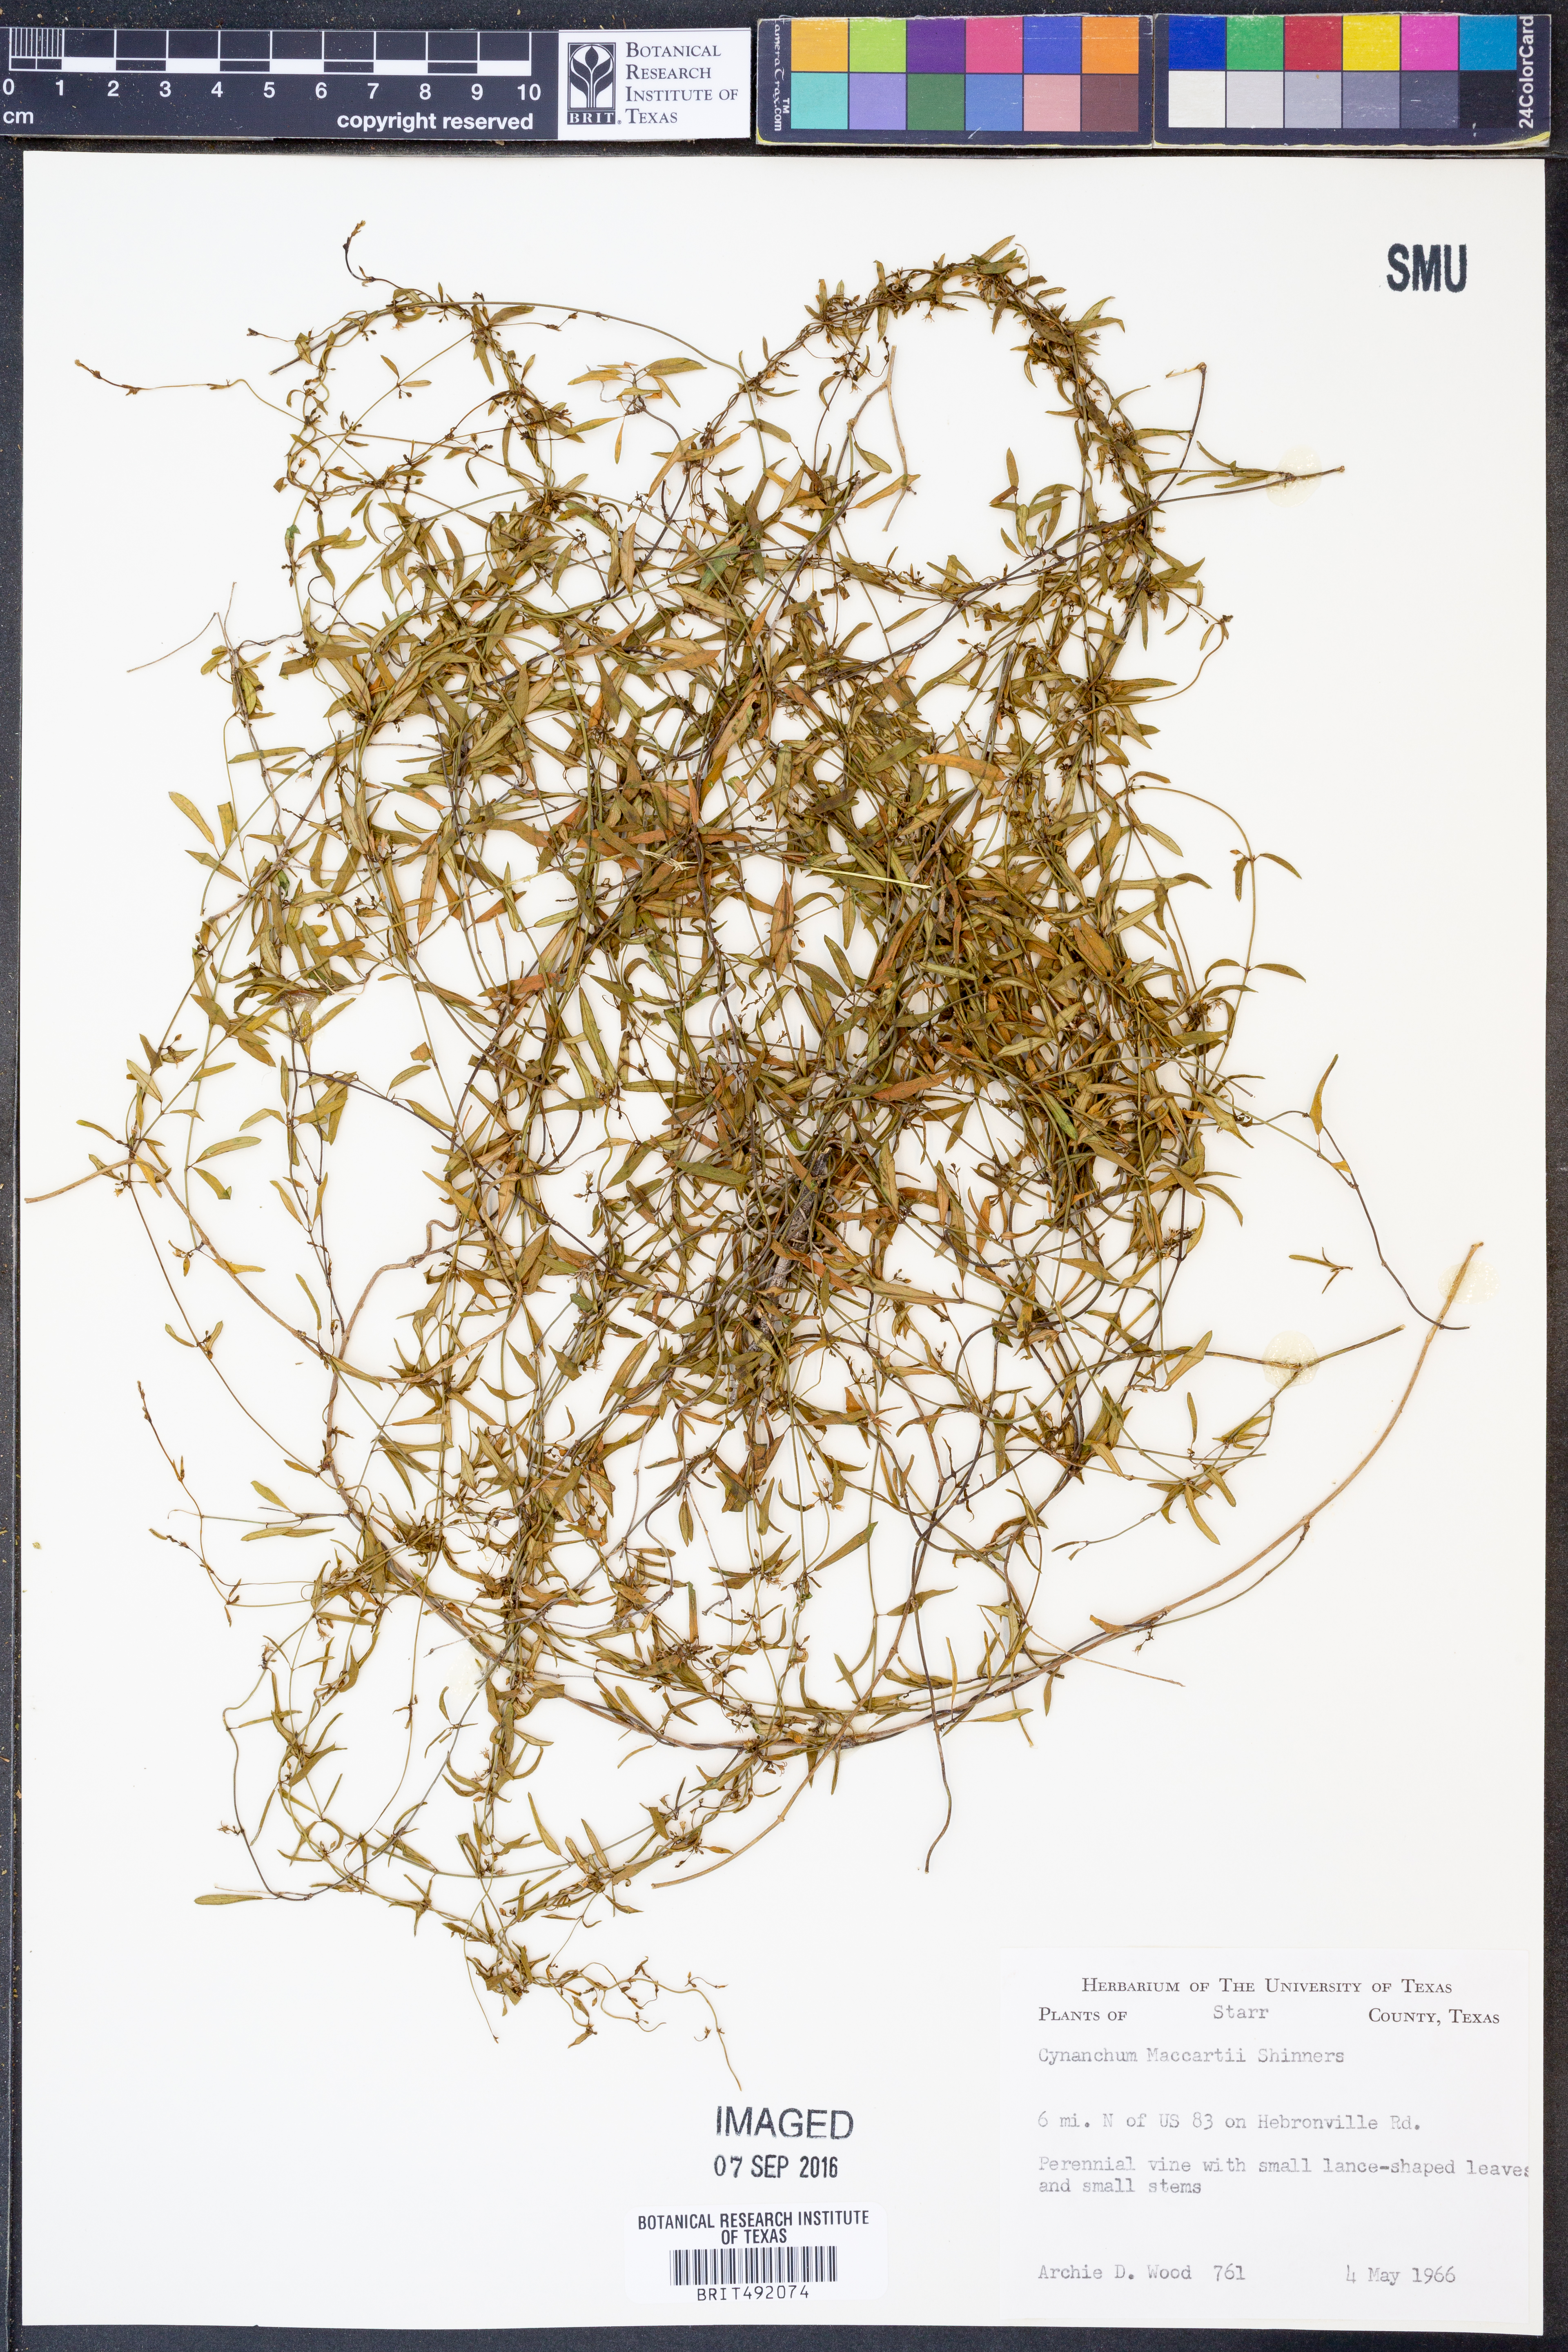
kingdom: Plantae
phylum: Tracheophyta
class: Magnoliopsida
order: Gentianales
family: Apocynaceae
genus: Metastelma
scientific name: Metastelma palmeri
